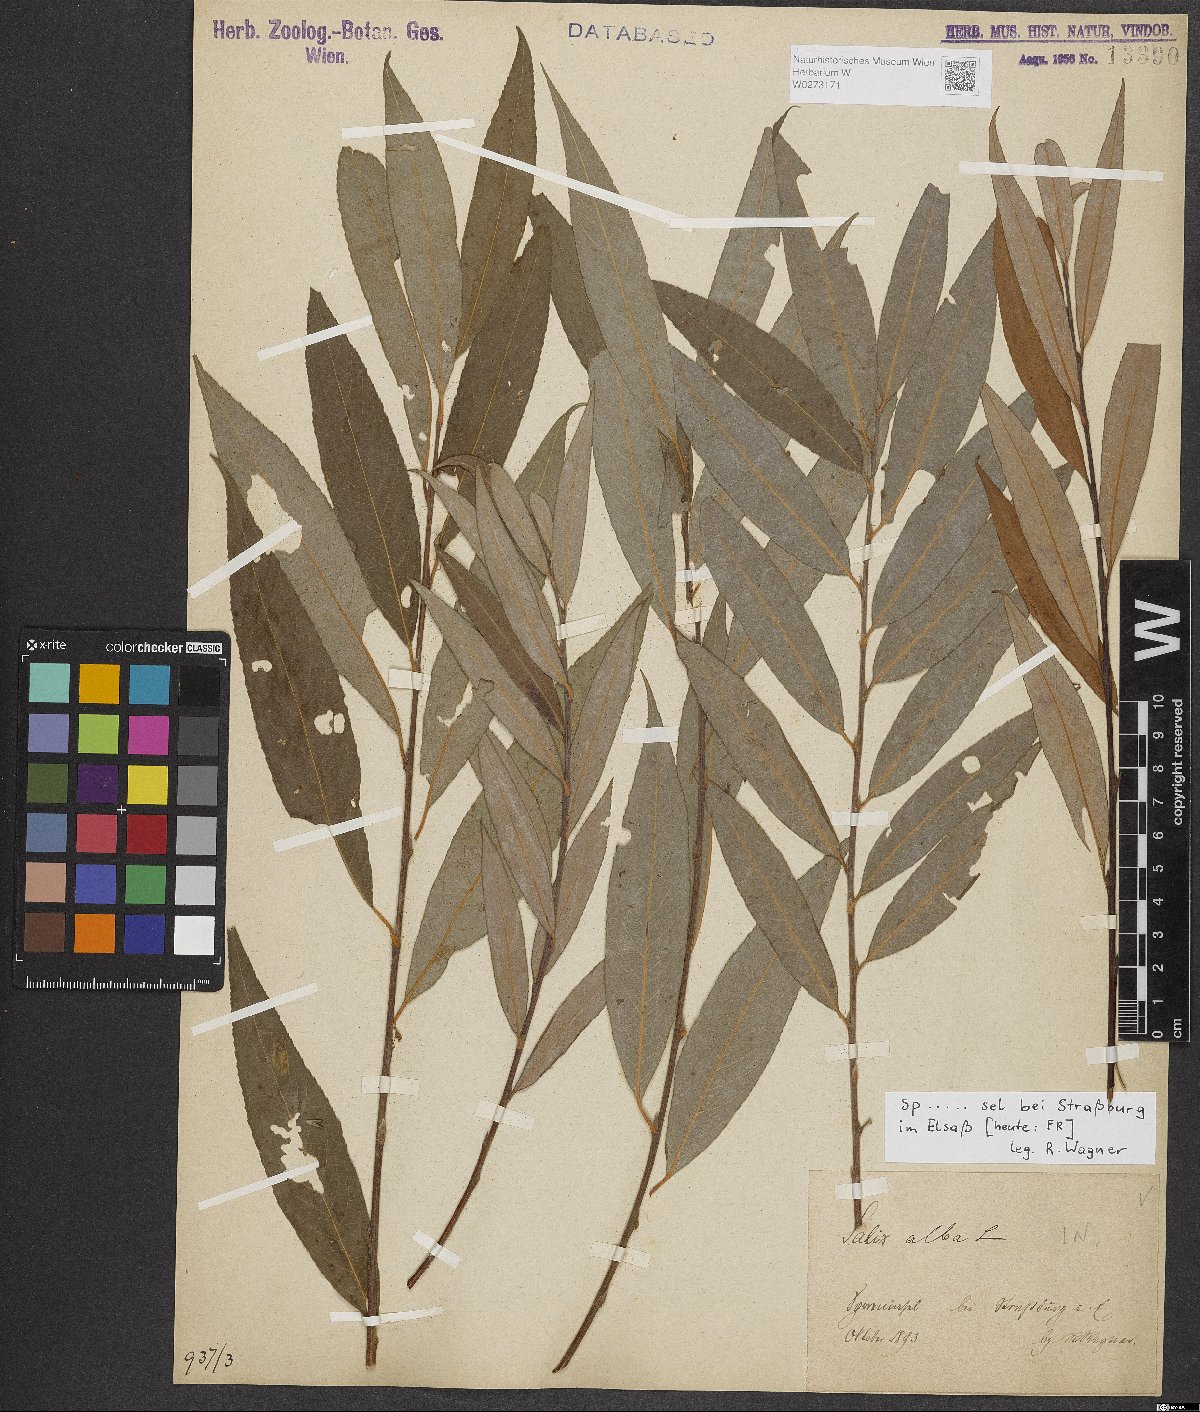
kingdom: Plantae
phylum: Tracheophyta
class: Magnoliopsida
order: Malpighiales
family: Salicaceae
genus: Salix
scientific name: Salix alba
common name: White willow
